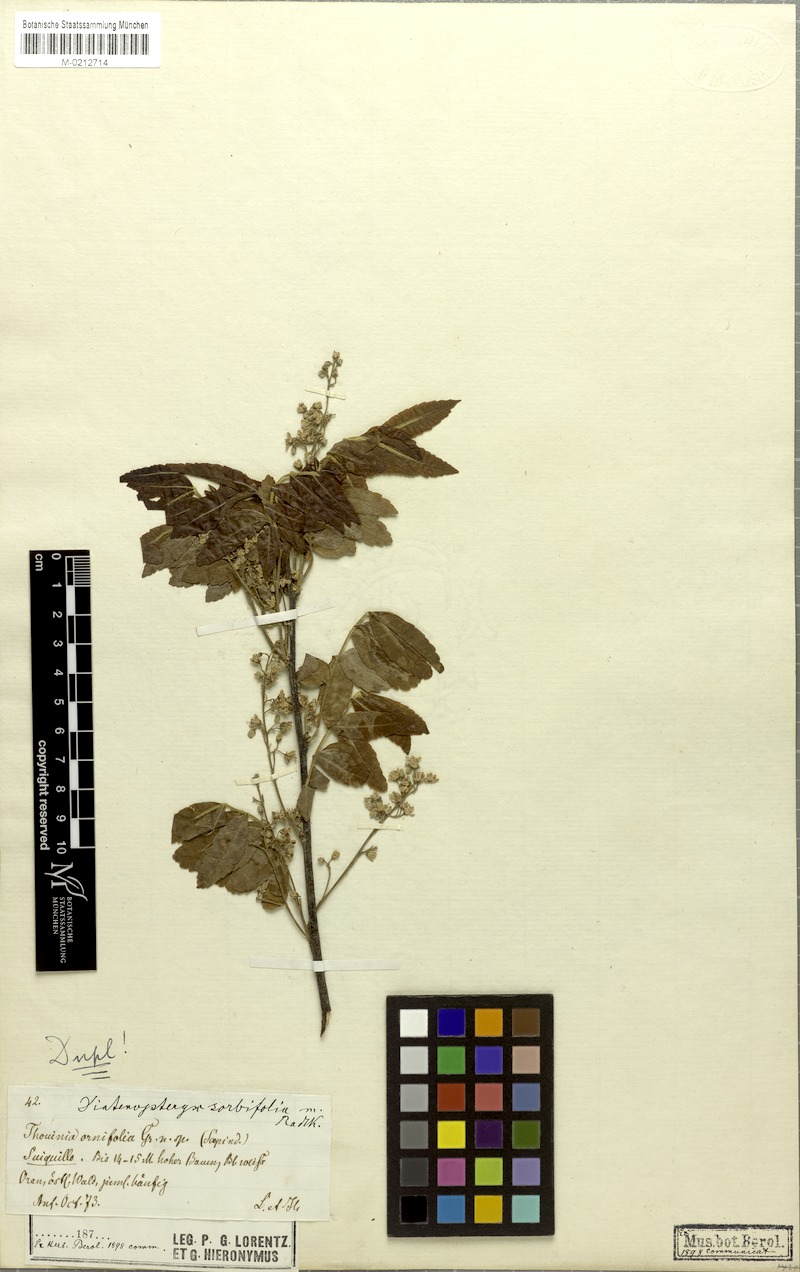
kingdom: Plantae
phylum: Tracheophyta
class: Magnoliopsida
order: Sapindales
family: Sapindaceae
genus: Diatenopteryx
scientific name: Diatenopteryx sorbifolia
